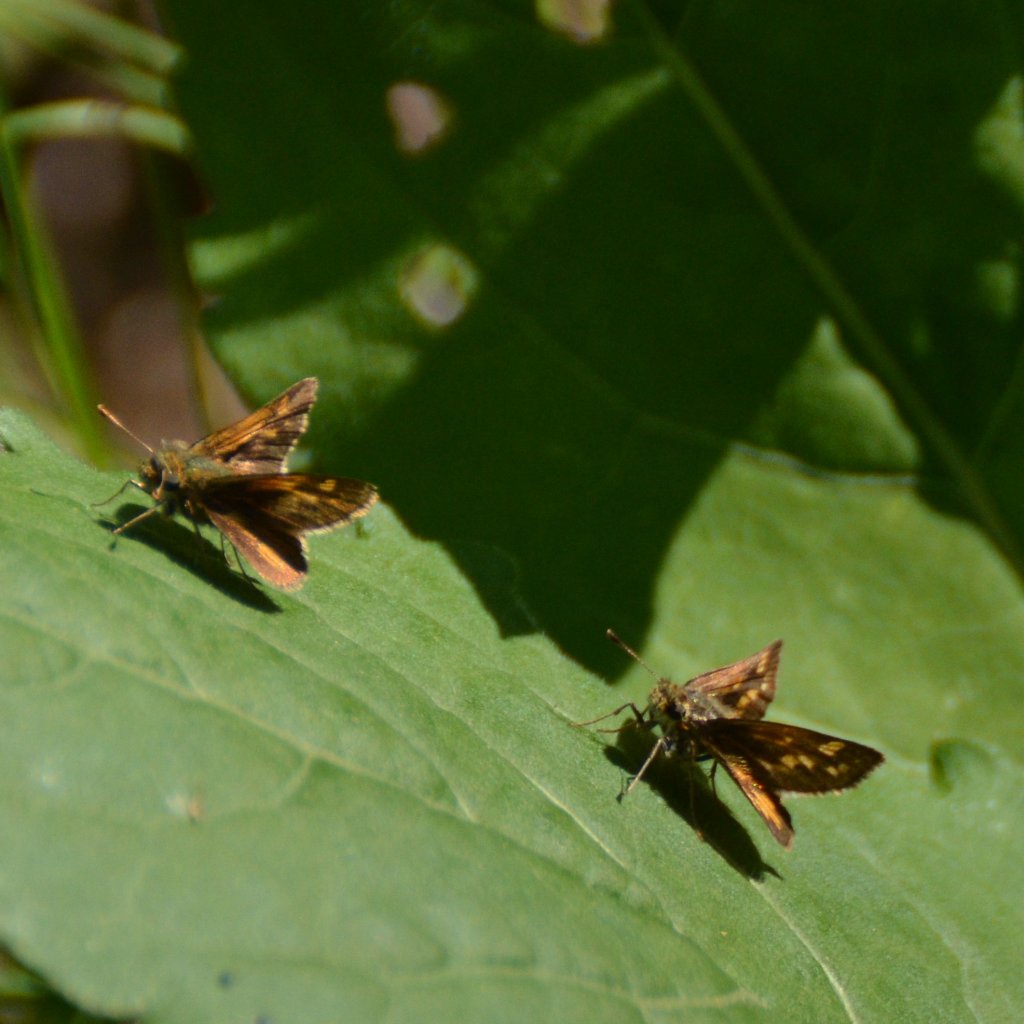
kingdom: Animalia
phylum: Arthropoda
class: Insecta
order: Lepidoptera
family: Hesperiidae
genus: Polites
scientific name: Polites coras
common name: Peck's Skipper
